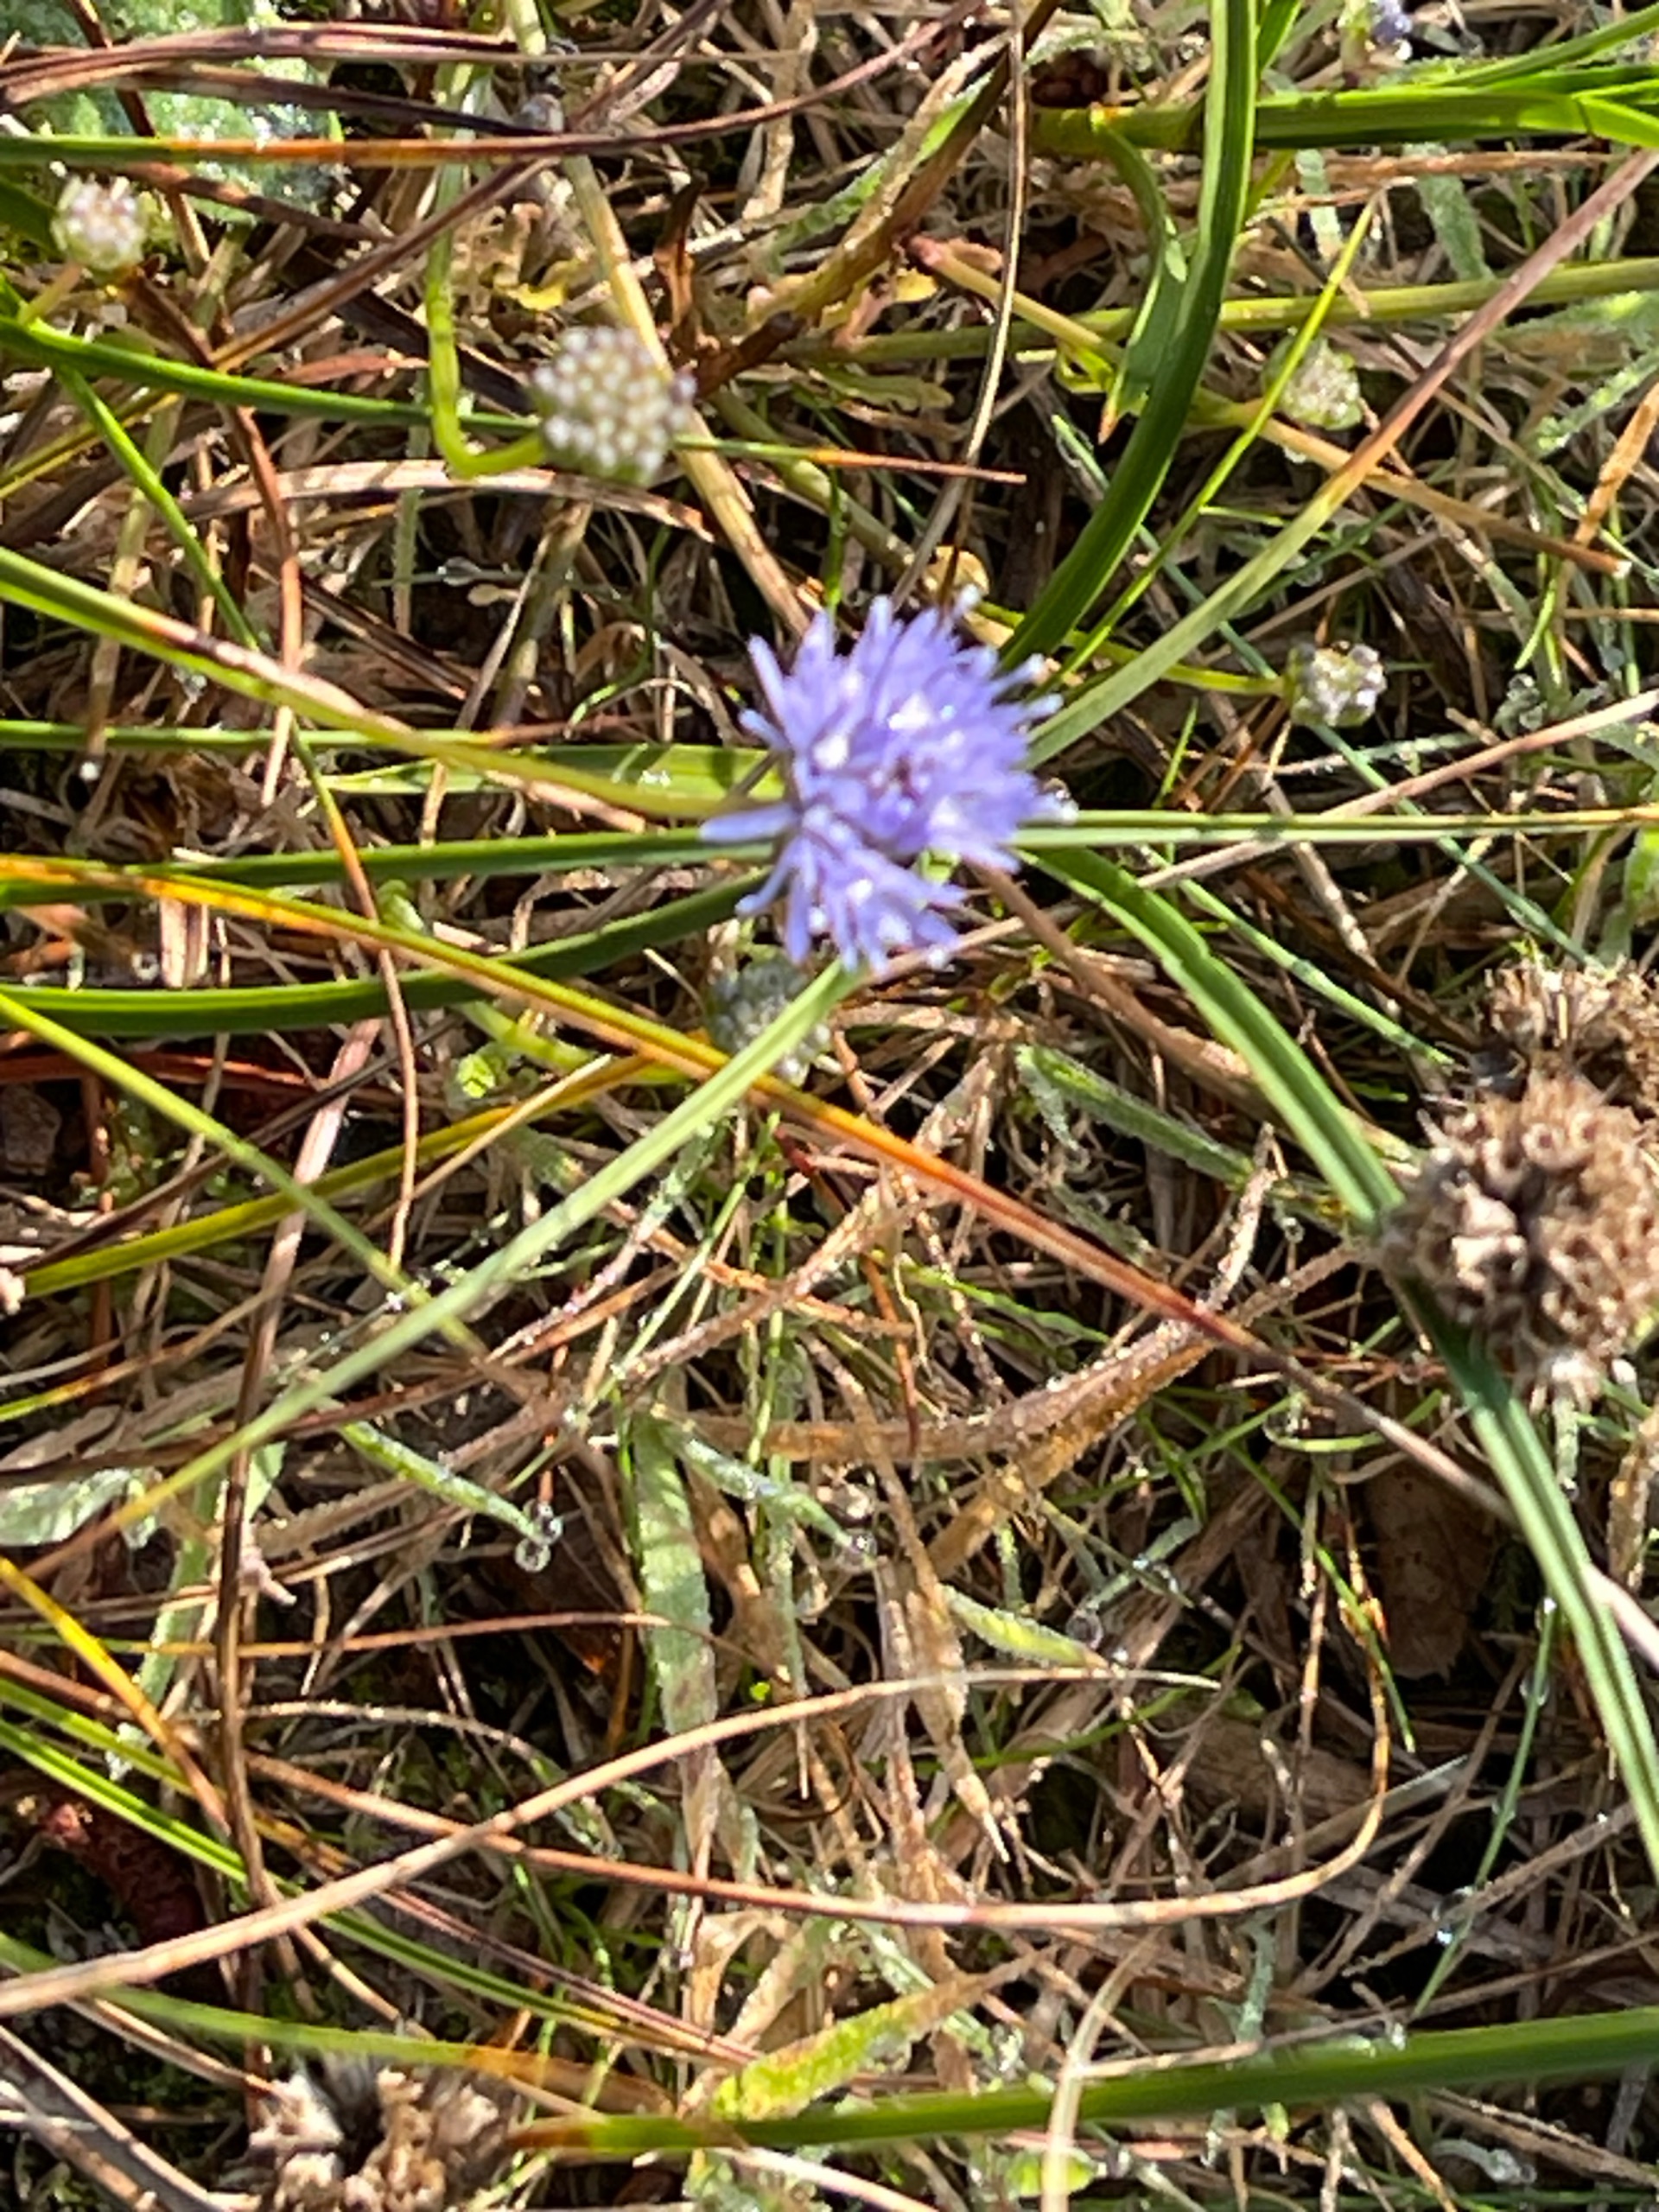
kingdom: Plantae
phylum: Tracheophyta
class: Magnoliopsida
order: Asterales
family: Campanulaceae
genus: Jasione
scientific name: Jasione montana
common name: Blåmunke
